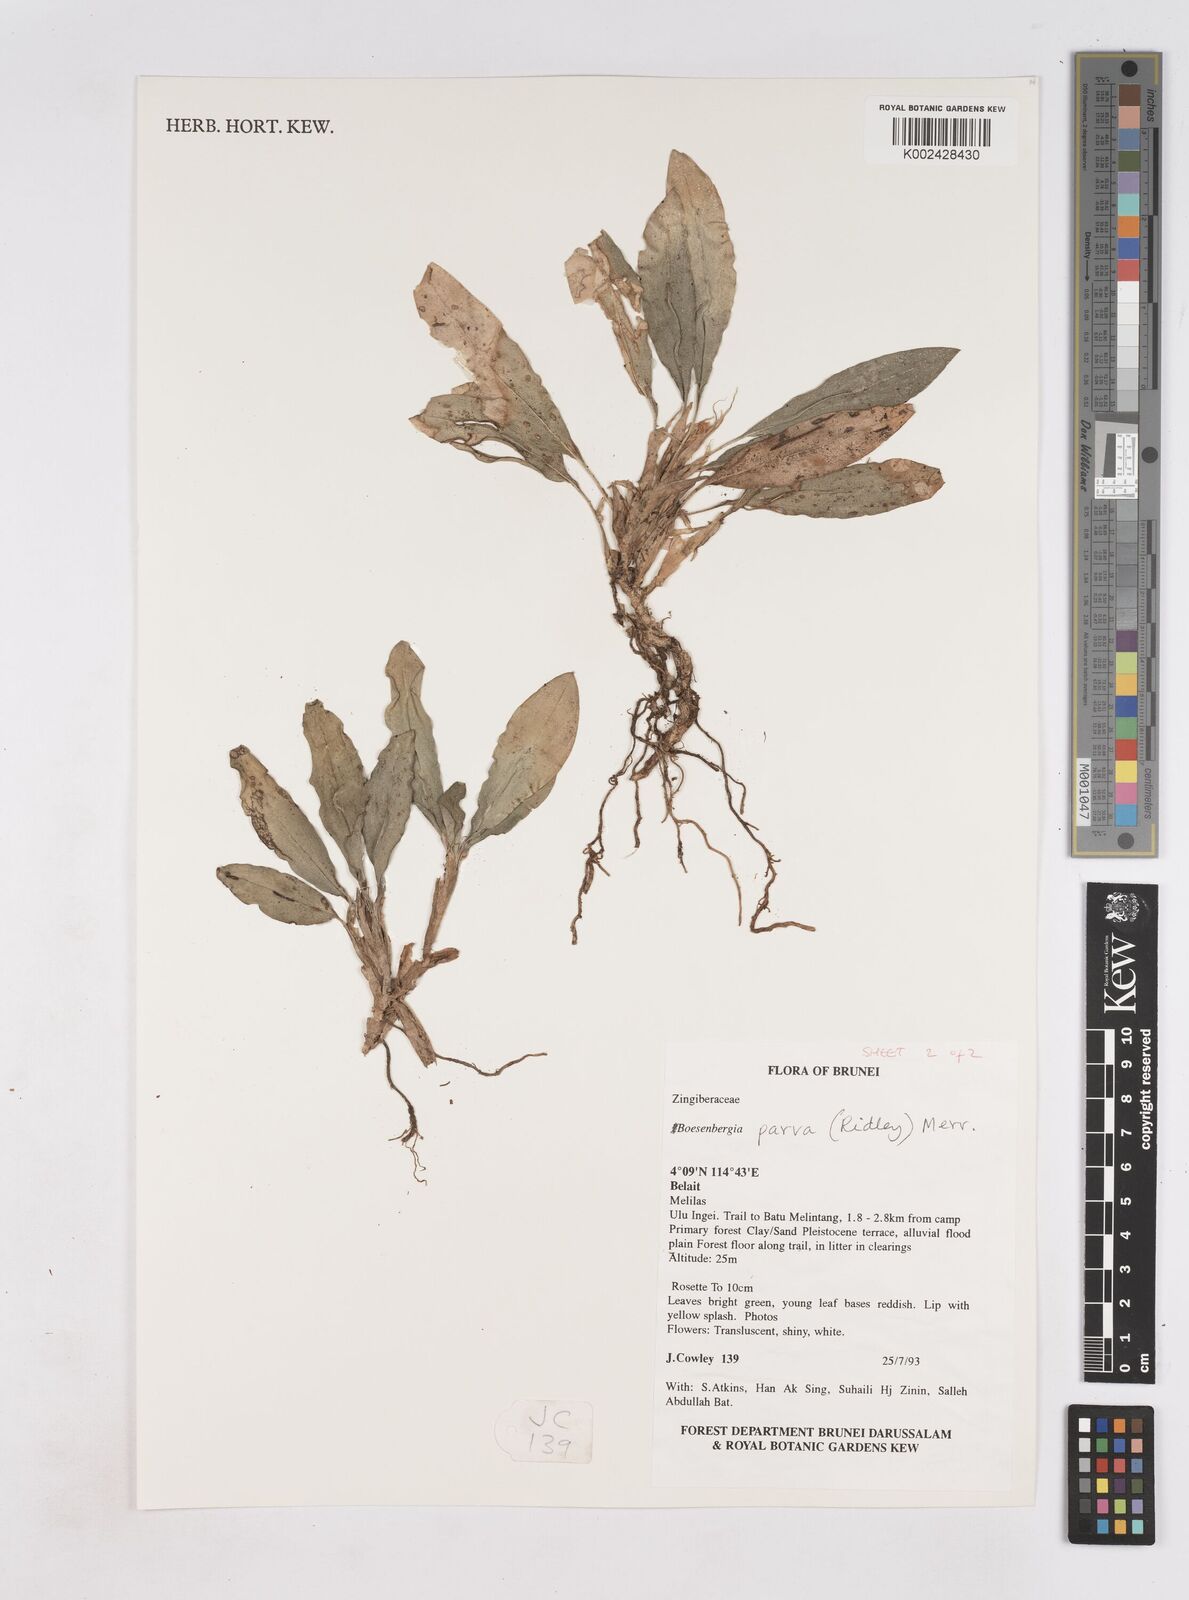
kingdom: Plantae
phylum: Tracheophyta
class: Liliopsida
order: Zingiberales
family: Zingiberaceae
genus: Boesenbergia
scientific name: Boesenbergia parva
